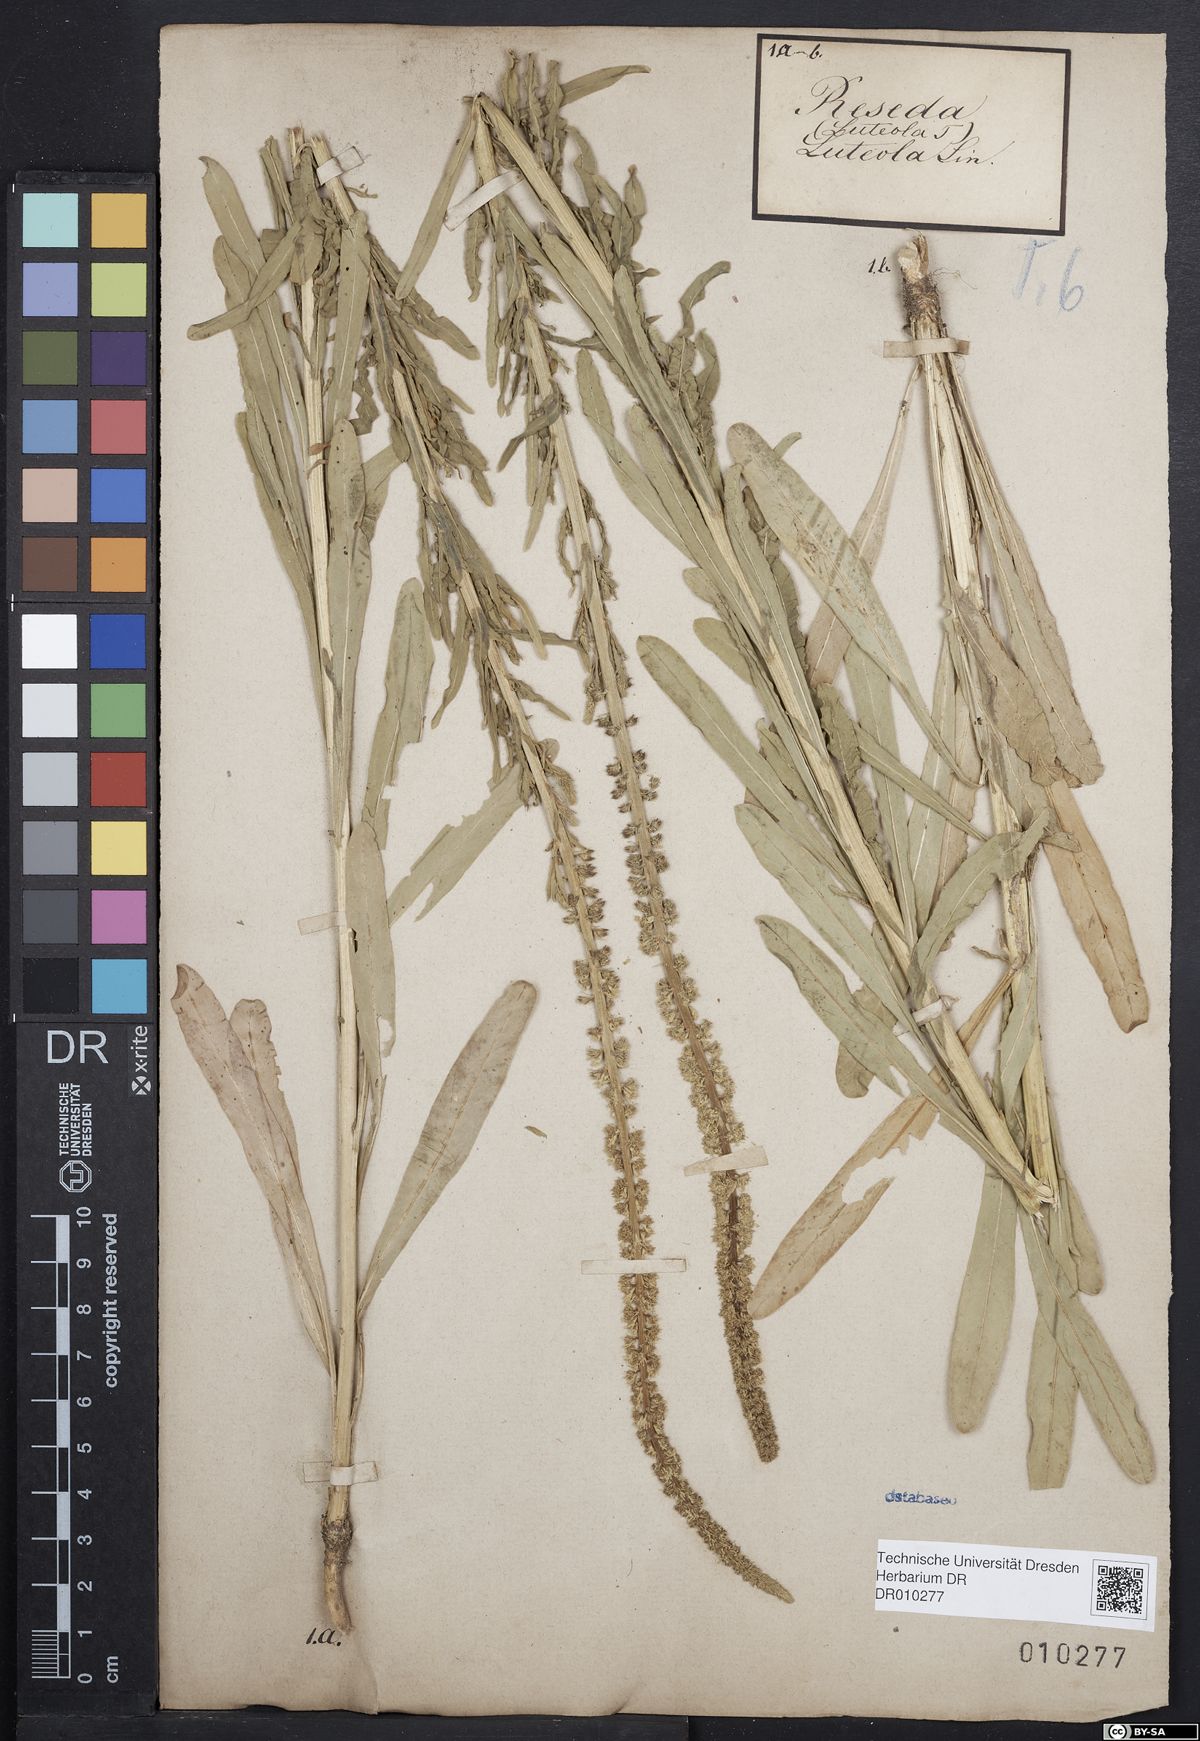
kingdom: Plantae
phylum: Tracheophyta
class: Magnoliopsida
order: Brassicales
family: Resedaceae
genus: Reseda
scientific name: Reseda luteola
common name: Weld
